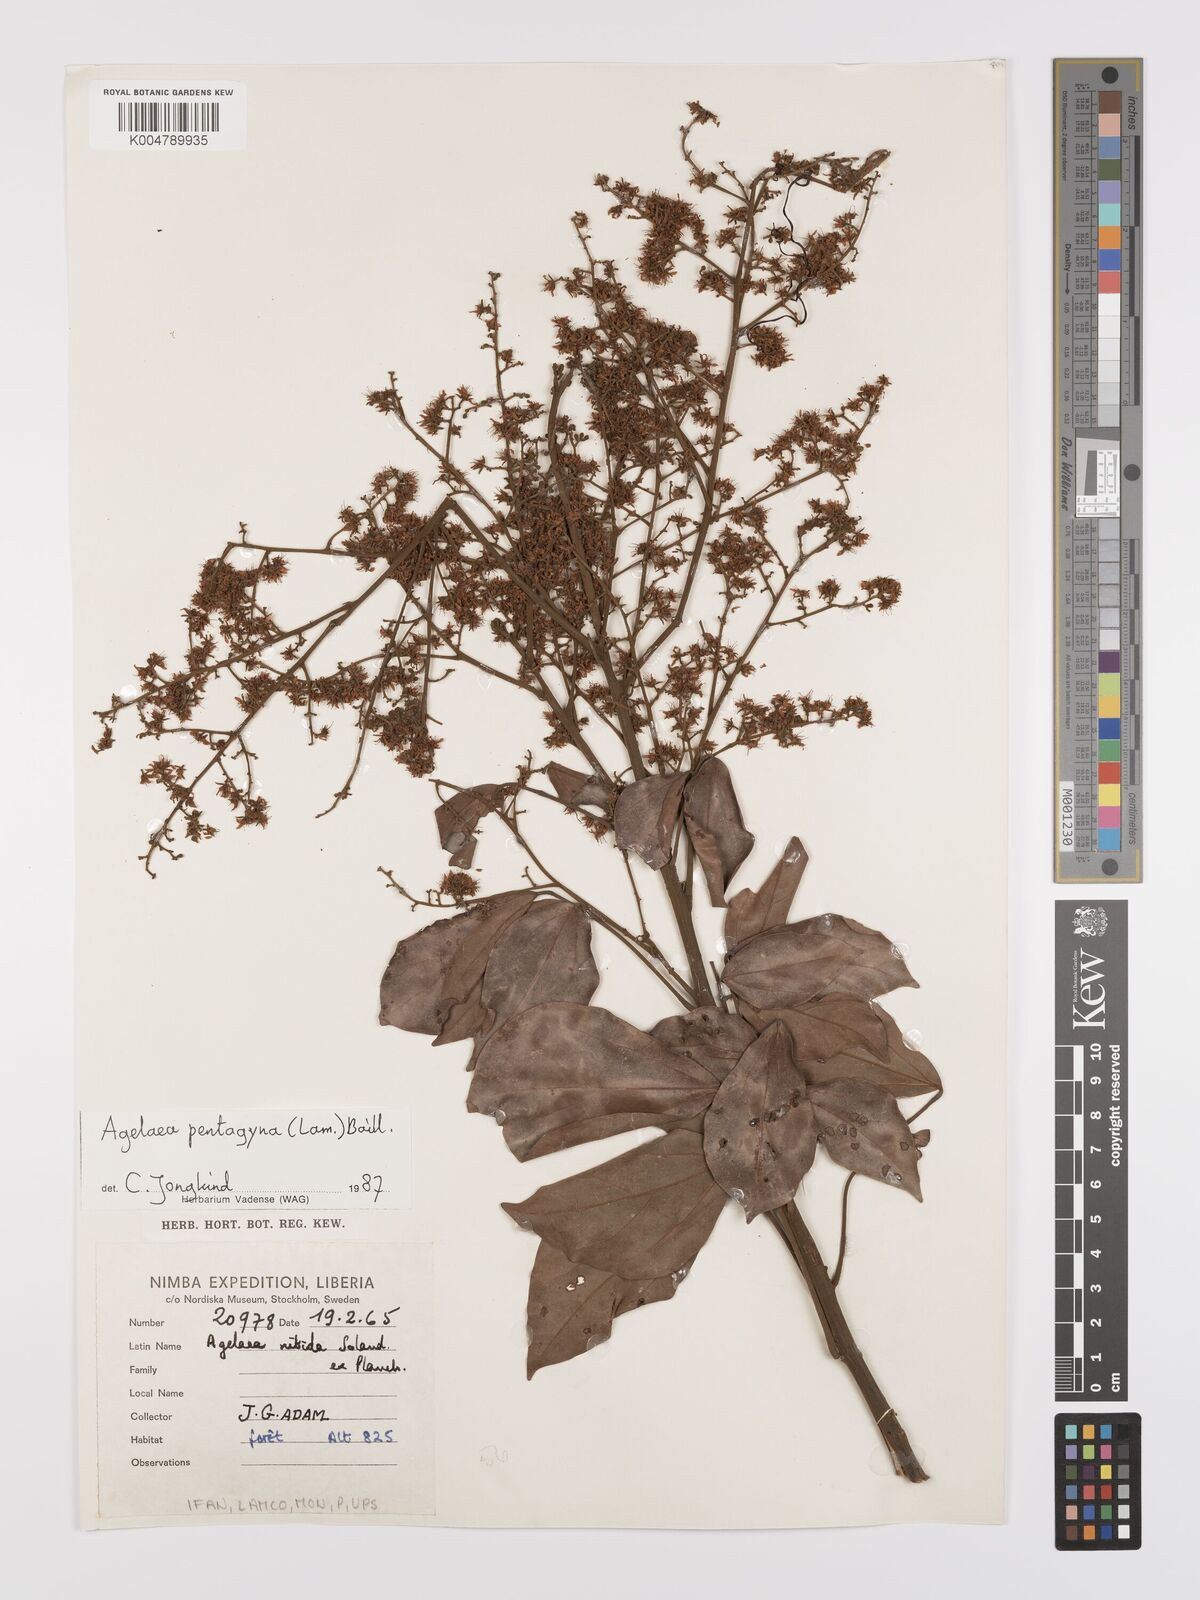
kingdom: Plantae
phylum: Tracheophyta
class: Magnoliopsida
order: Oxalidales
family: Connaraceae
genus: Agelaea
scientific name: Agelaea pentagyna
